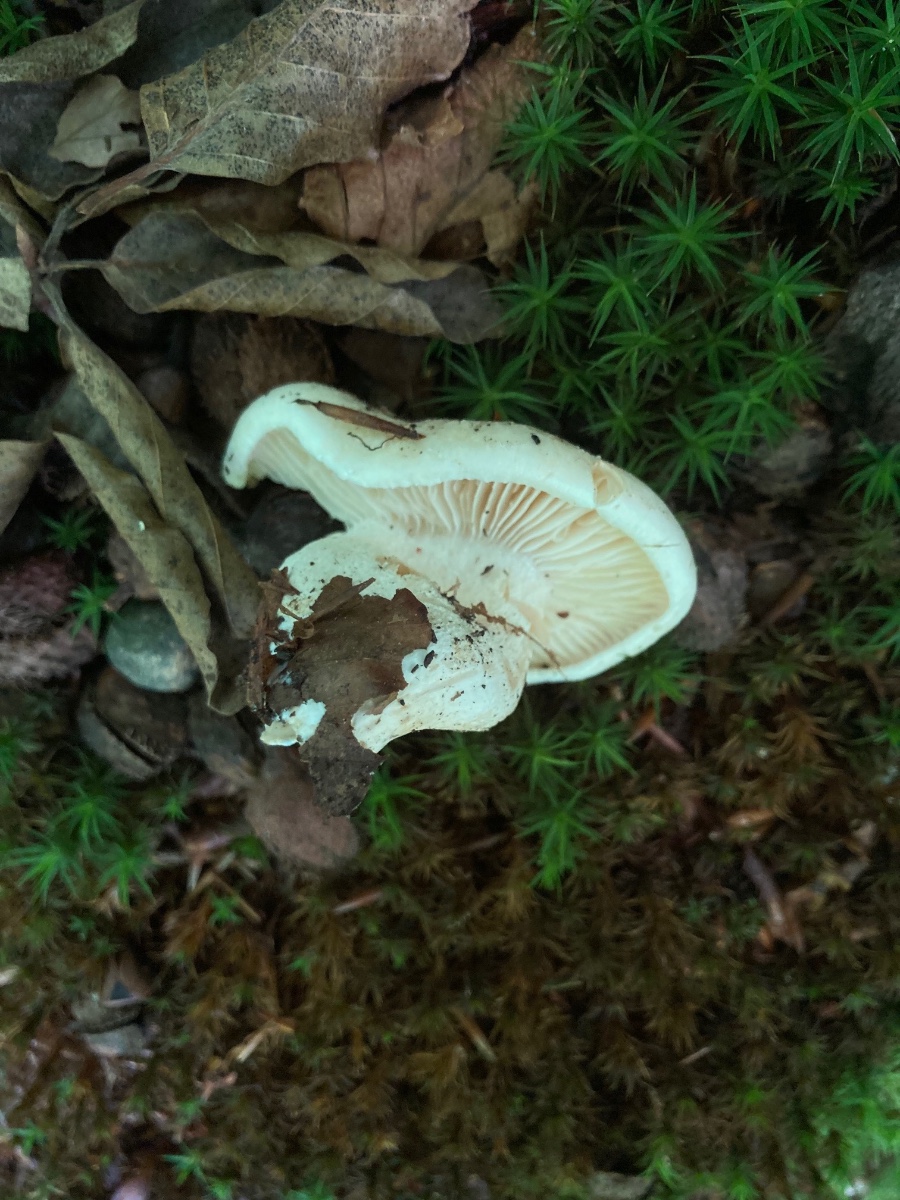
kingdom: Fungi
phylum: Basidiomycota
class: Agaricomycetes
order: Agaricales
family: Hygrophoraceae
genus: Hygrophorus
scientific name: Hygrophorus penarius
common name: spiselig sneglehat
